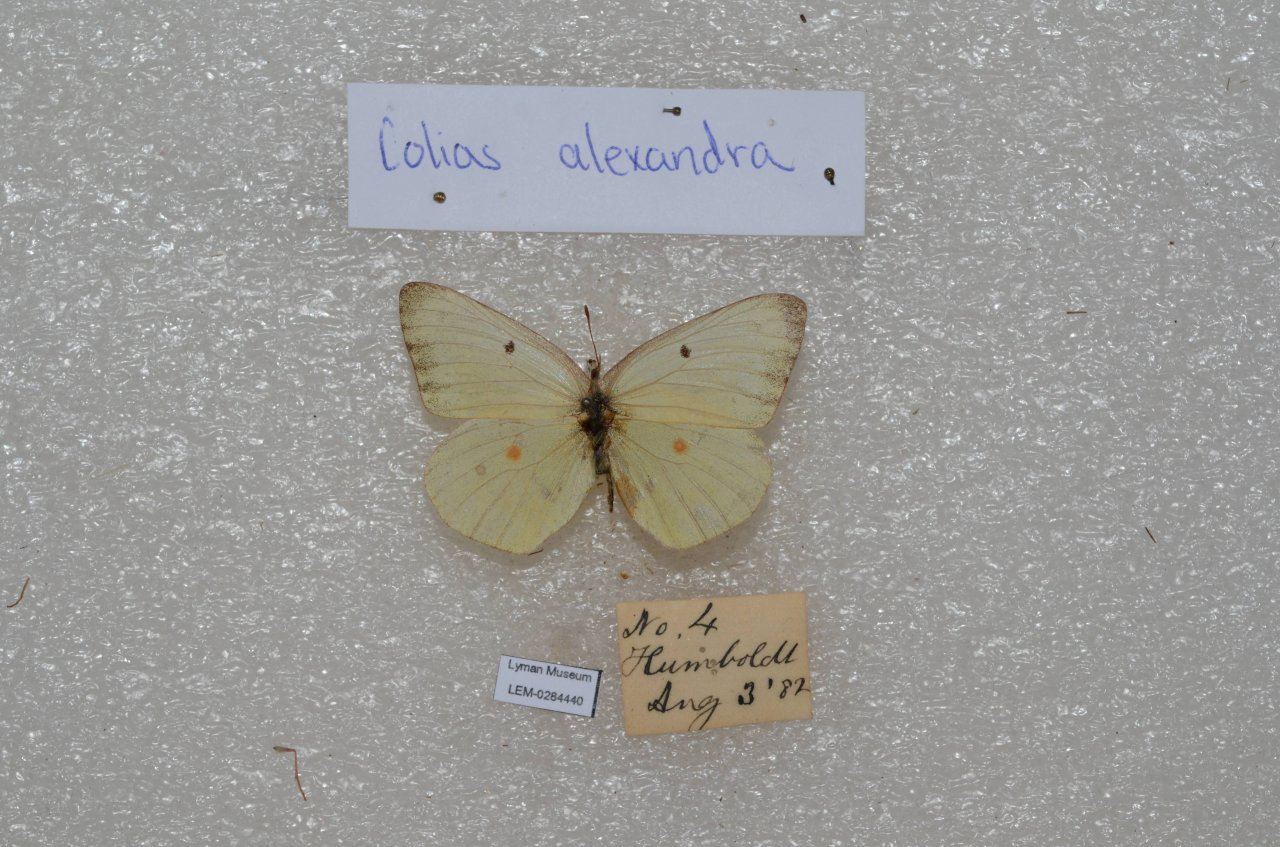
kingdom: Animalia
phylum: Arthropoda
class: Insecta
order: Lepidoptera
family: Pieridae
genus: Colias
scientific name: Colias alexandra
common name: Queen Alexandra's Sulphur
